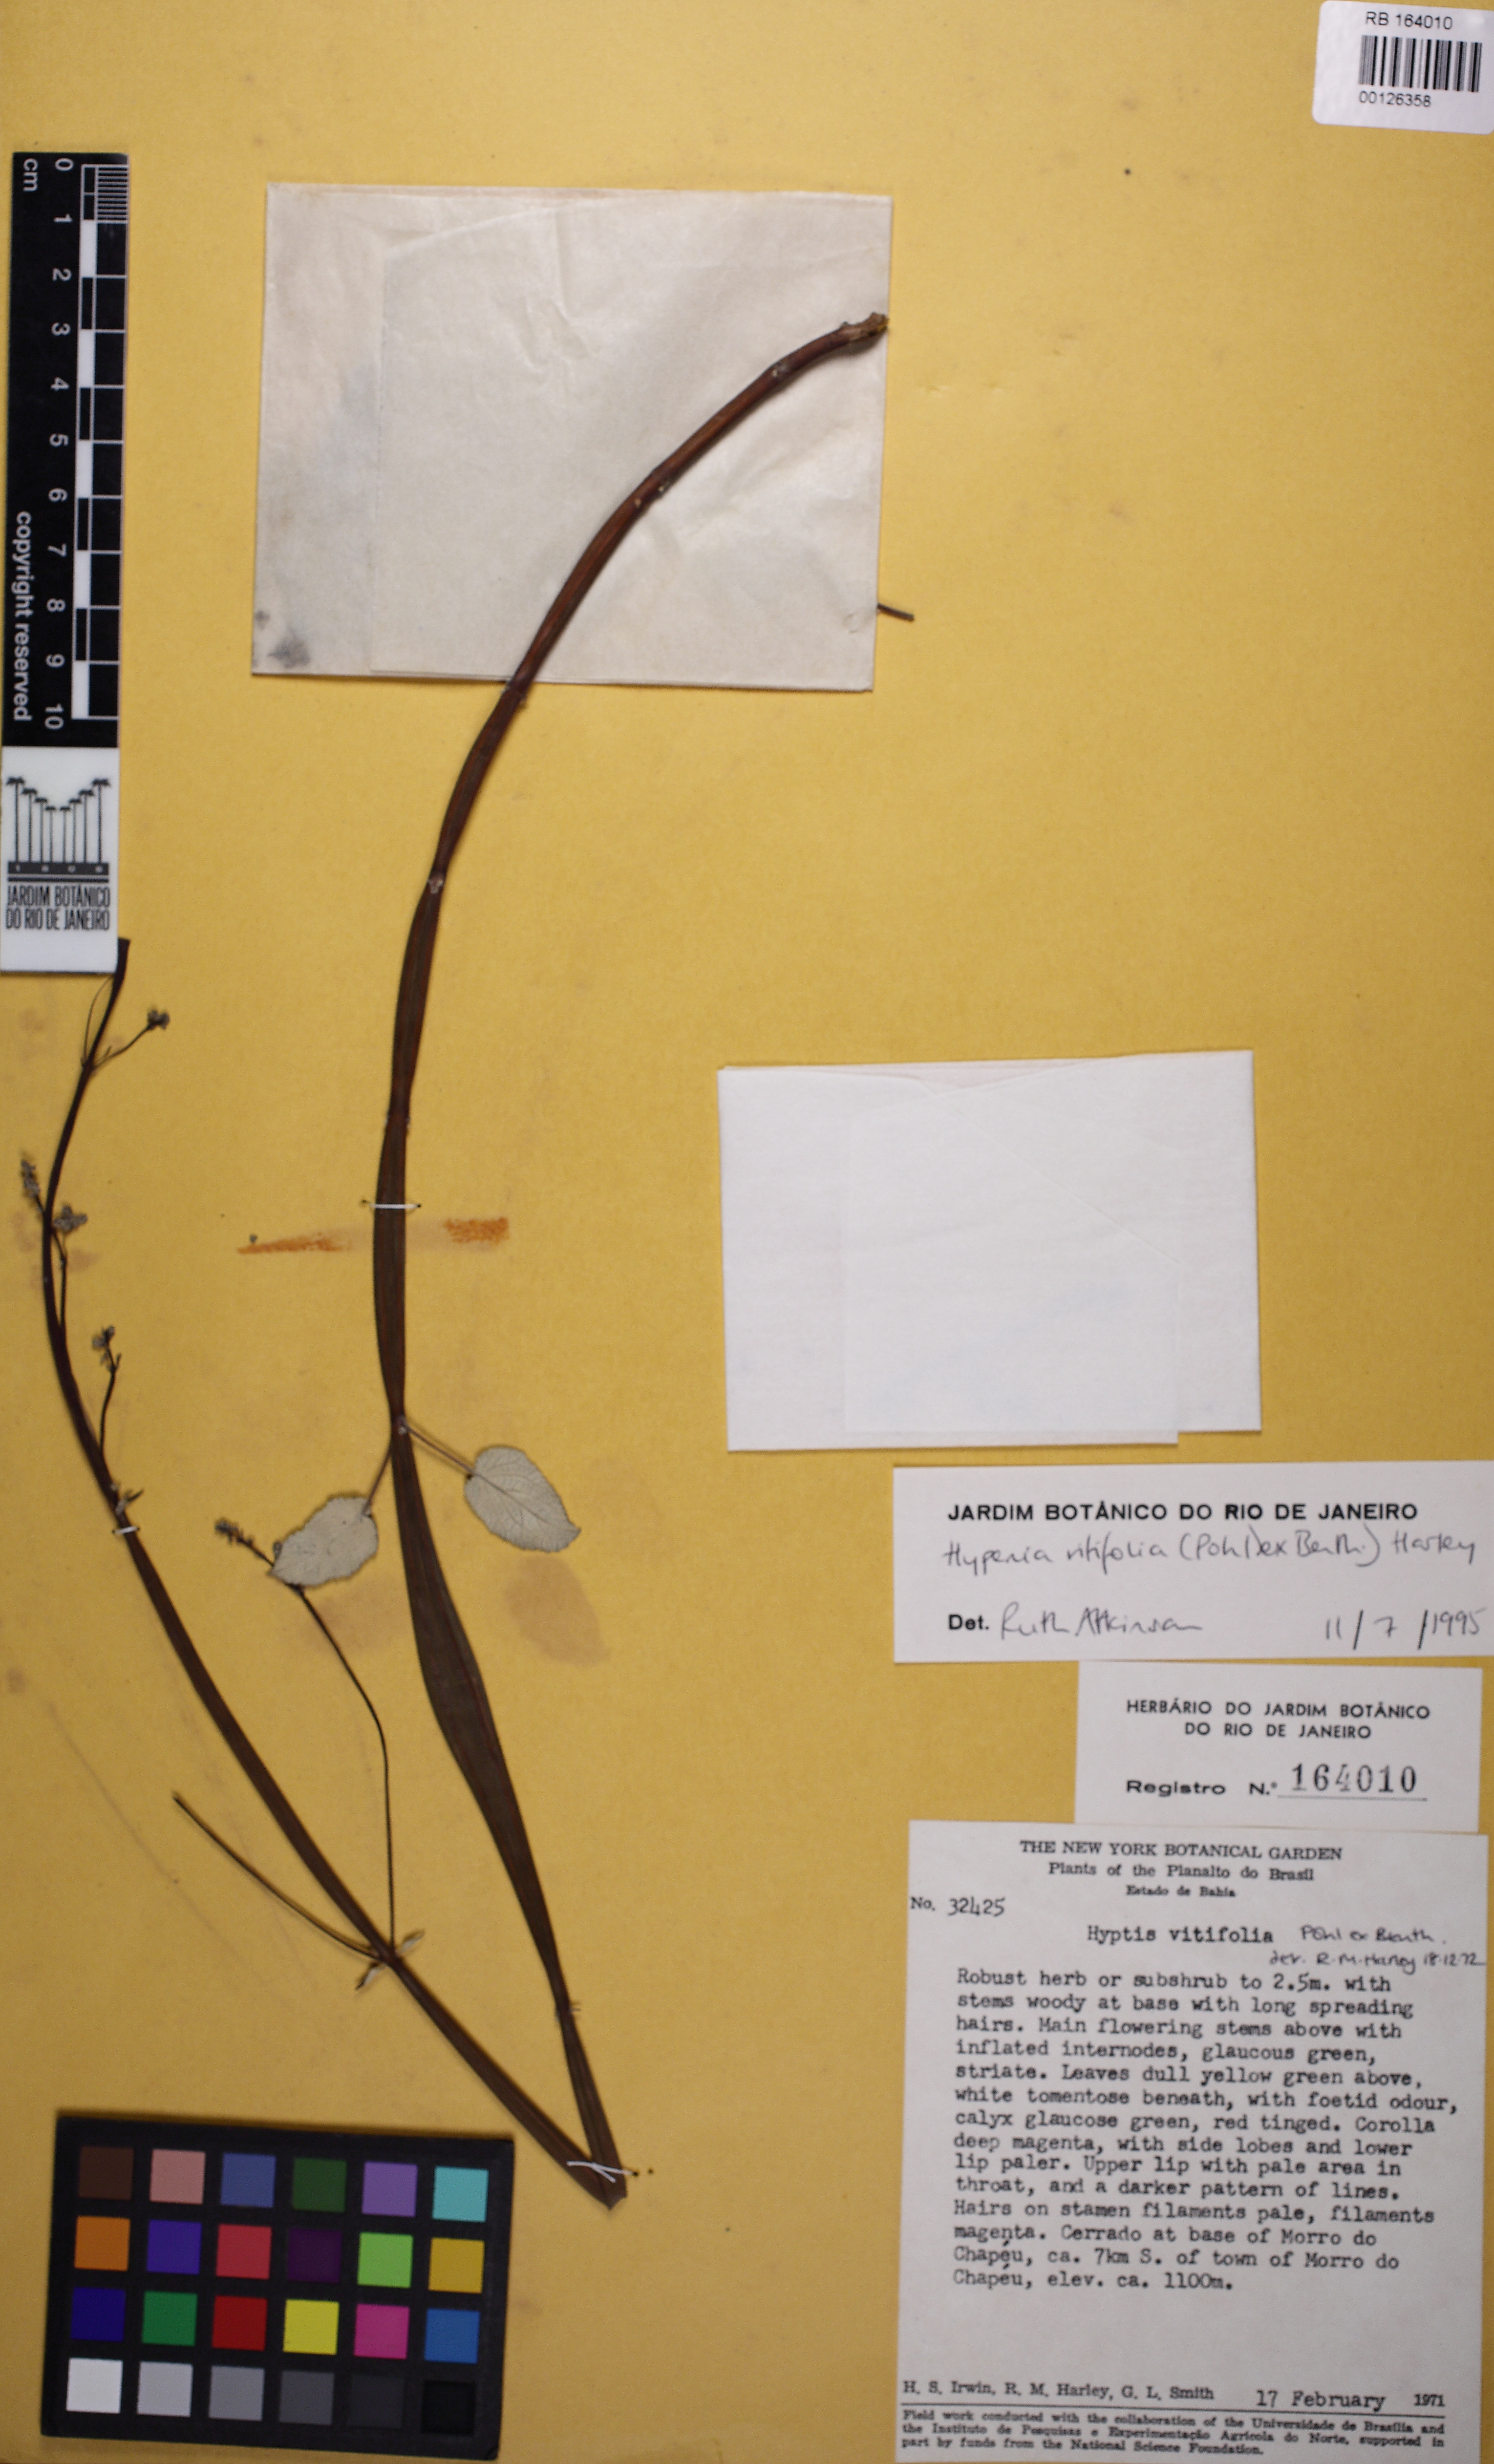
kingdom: Plantae
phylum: Tracheophyta
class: Magnoliopsida
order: Lamiales
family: Lamiaceae
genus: Physominthe
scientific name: Physominthe vitifolia
